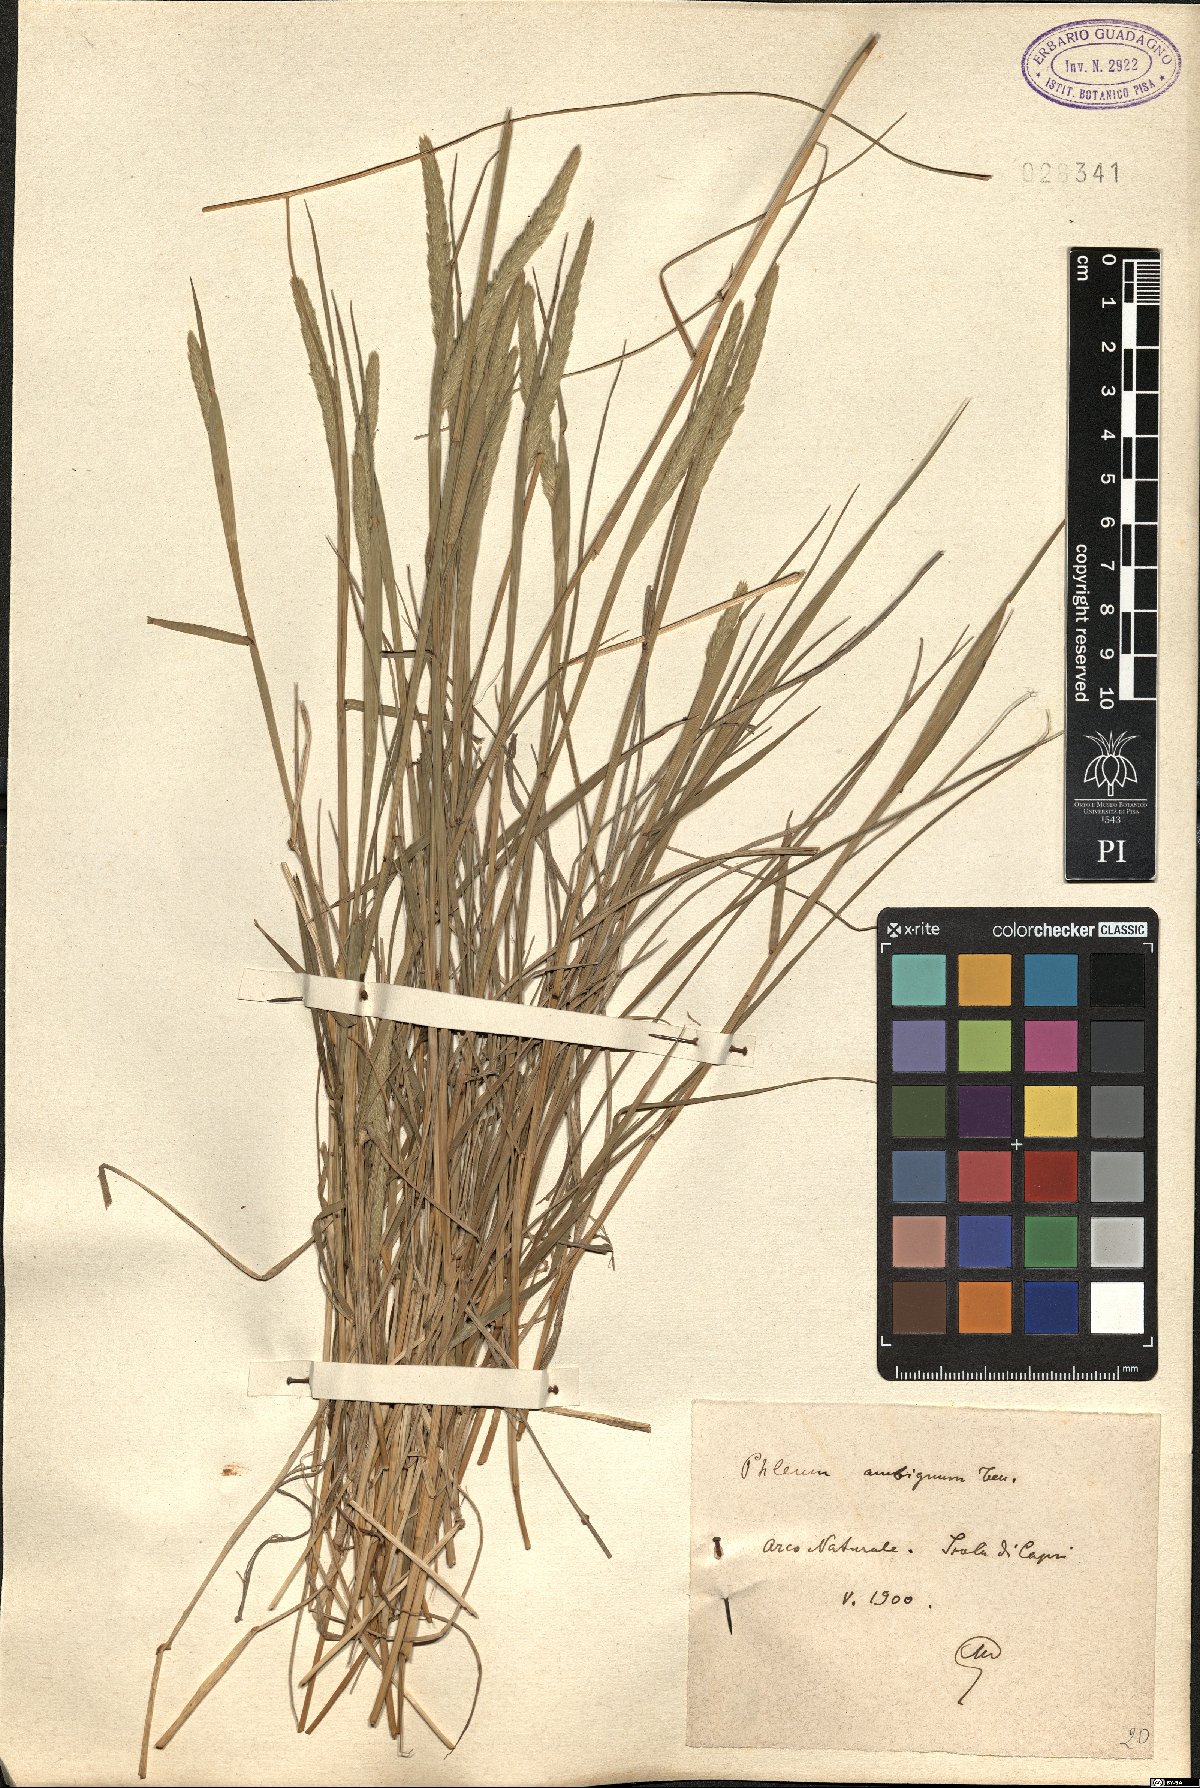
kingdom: Plantae
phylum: Tracheophyta
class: Liliopsida
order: Poales
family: Poaceae
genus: Phleum
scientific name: Phleum hirsutum
